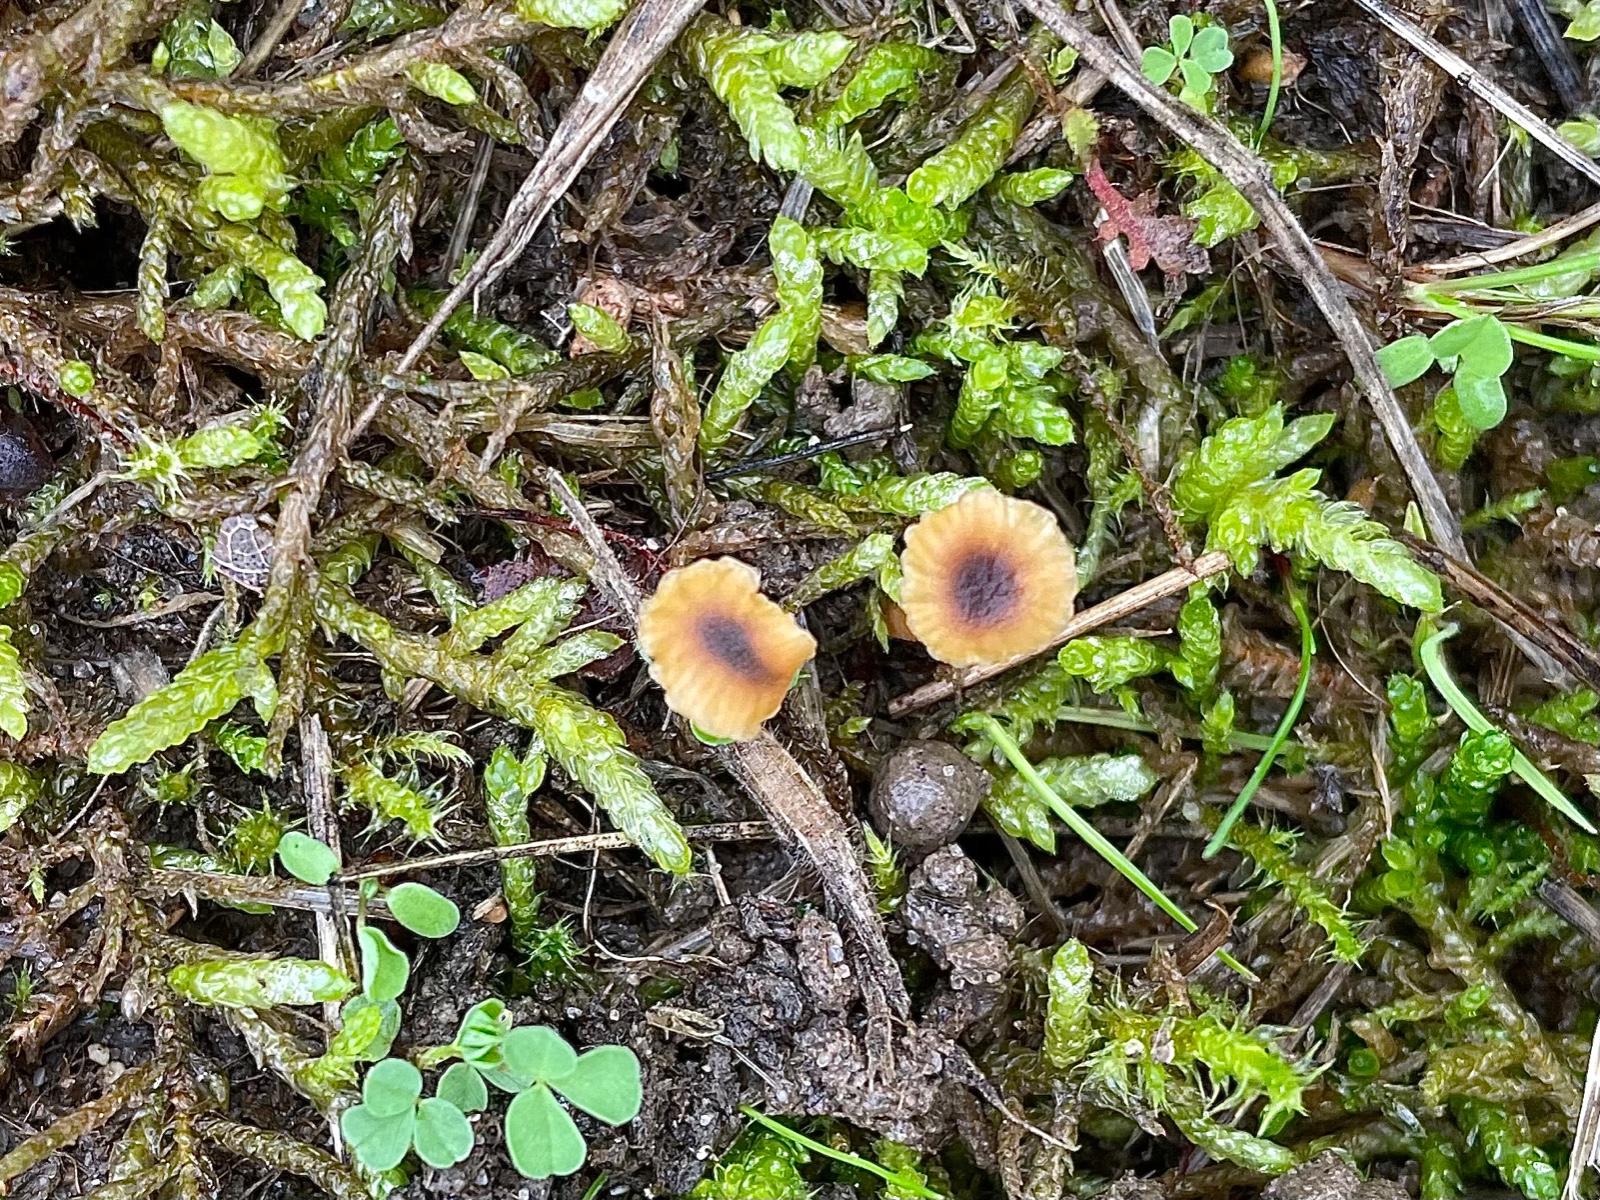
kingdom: Fungi
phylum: Basidiomycota
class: Agaricomycetes
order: Hymenochaetales
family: Rickenellaceae
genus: Rickenella
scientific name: Rickenella swartzii
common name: finstokket mosnavlehat
